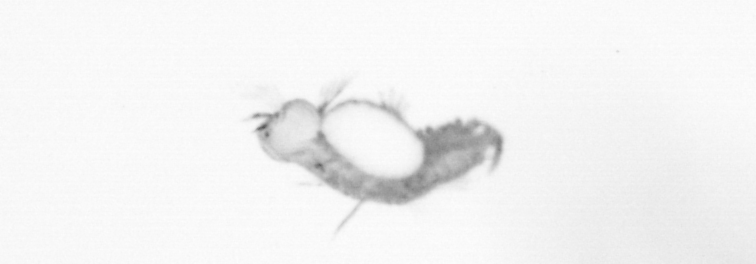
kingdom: Animalia
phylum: Annelida
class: Polychaeta
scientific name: Polychaeta
